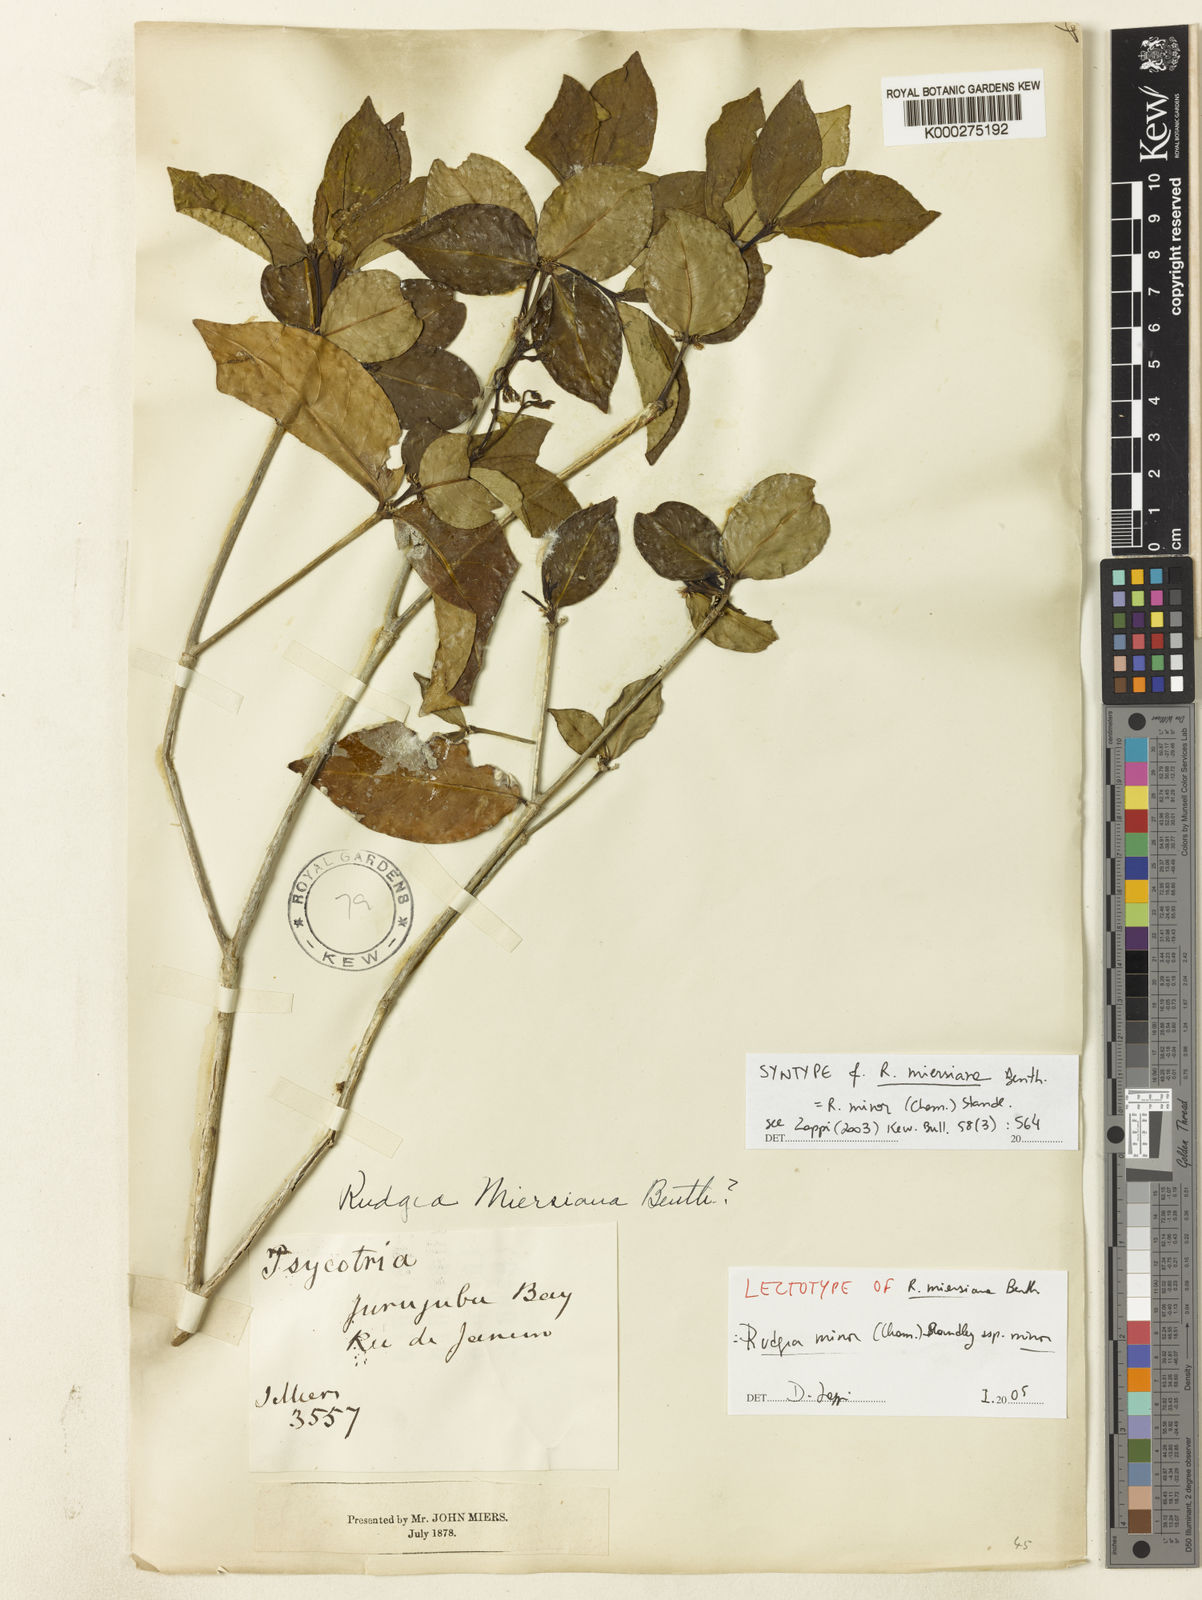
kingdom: Plantae
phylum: Tracheophyta
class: Magnoliopsida
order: Gentianales
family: Rubiaceae
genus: Rudgea
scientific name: Rudgea minor
